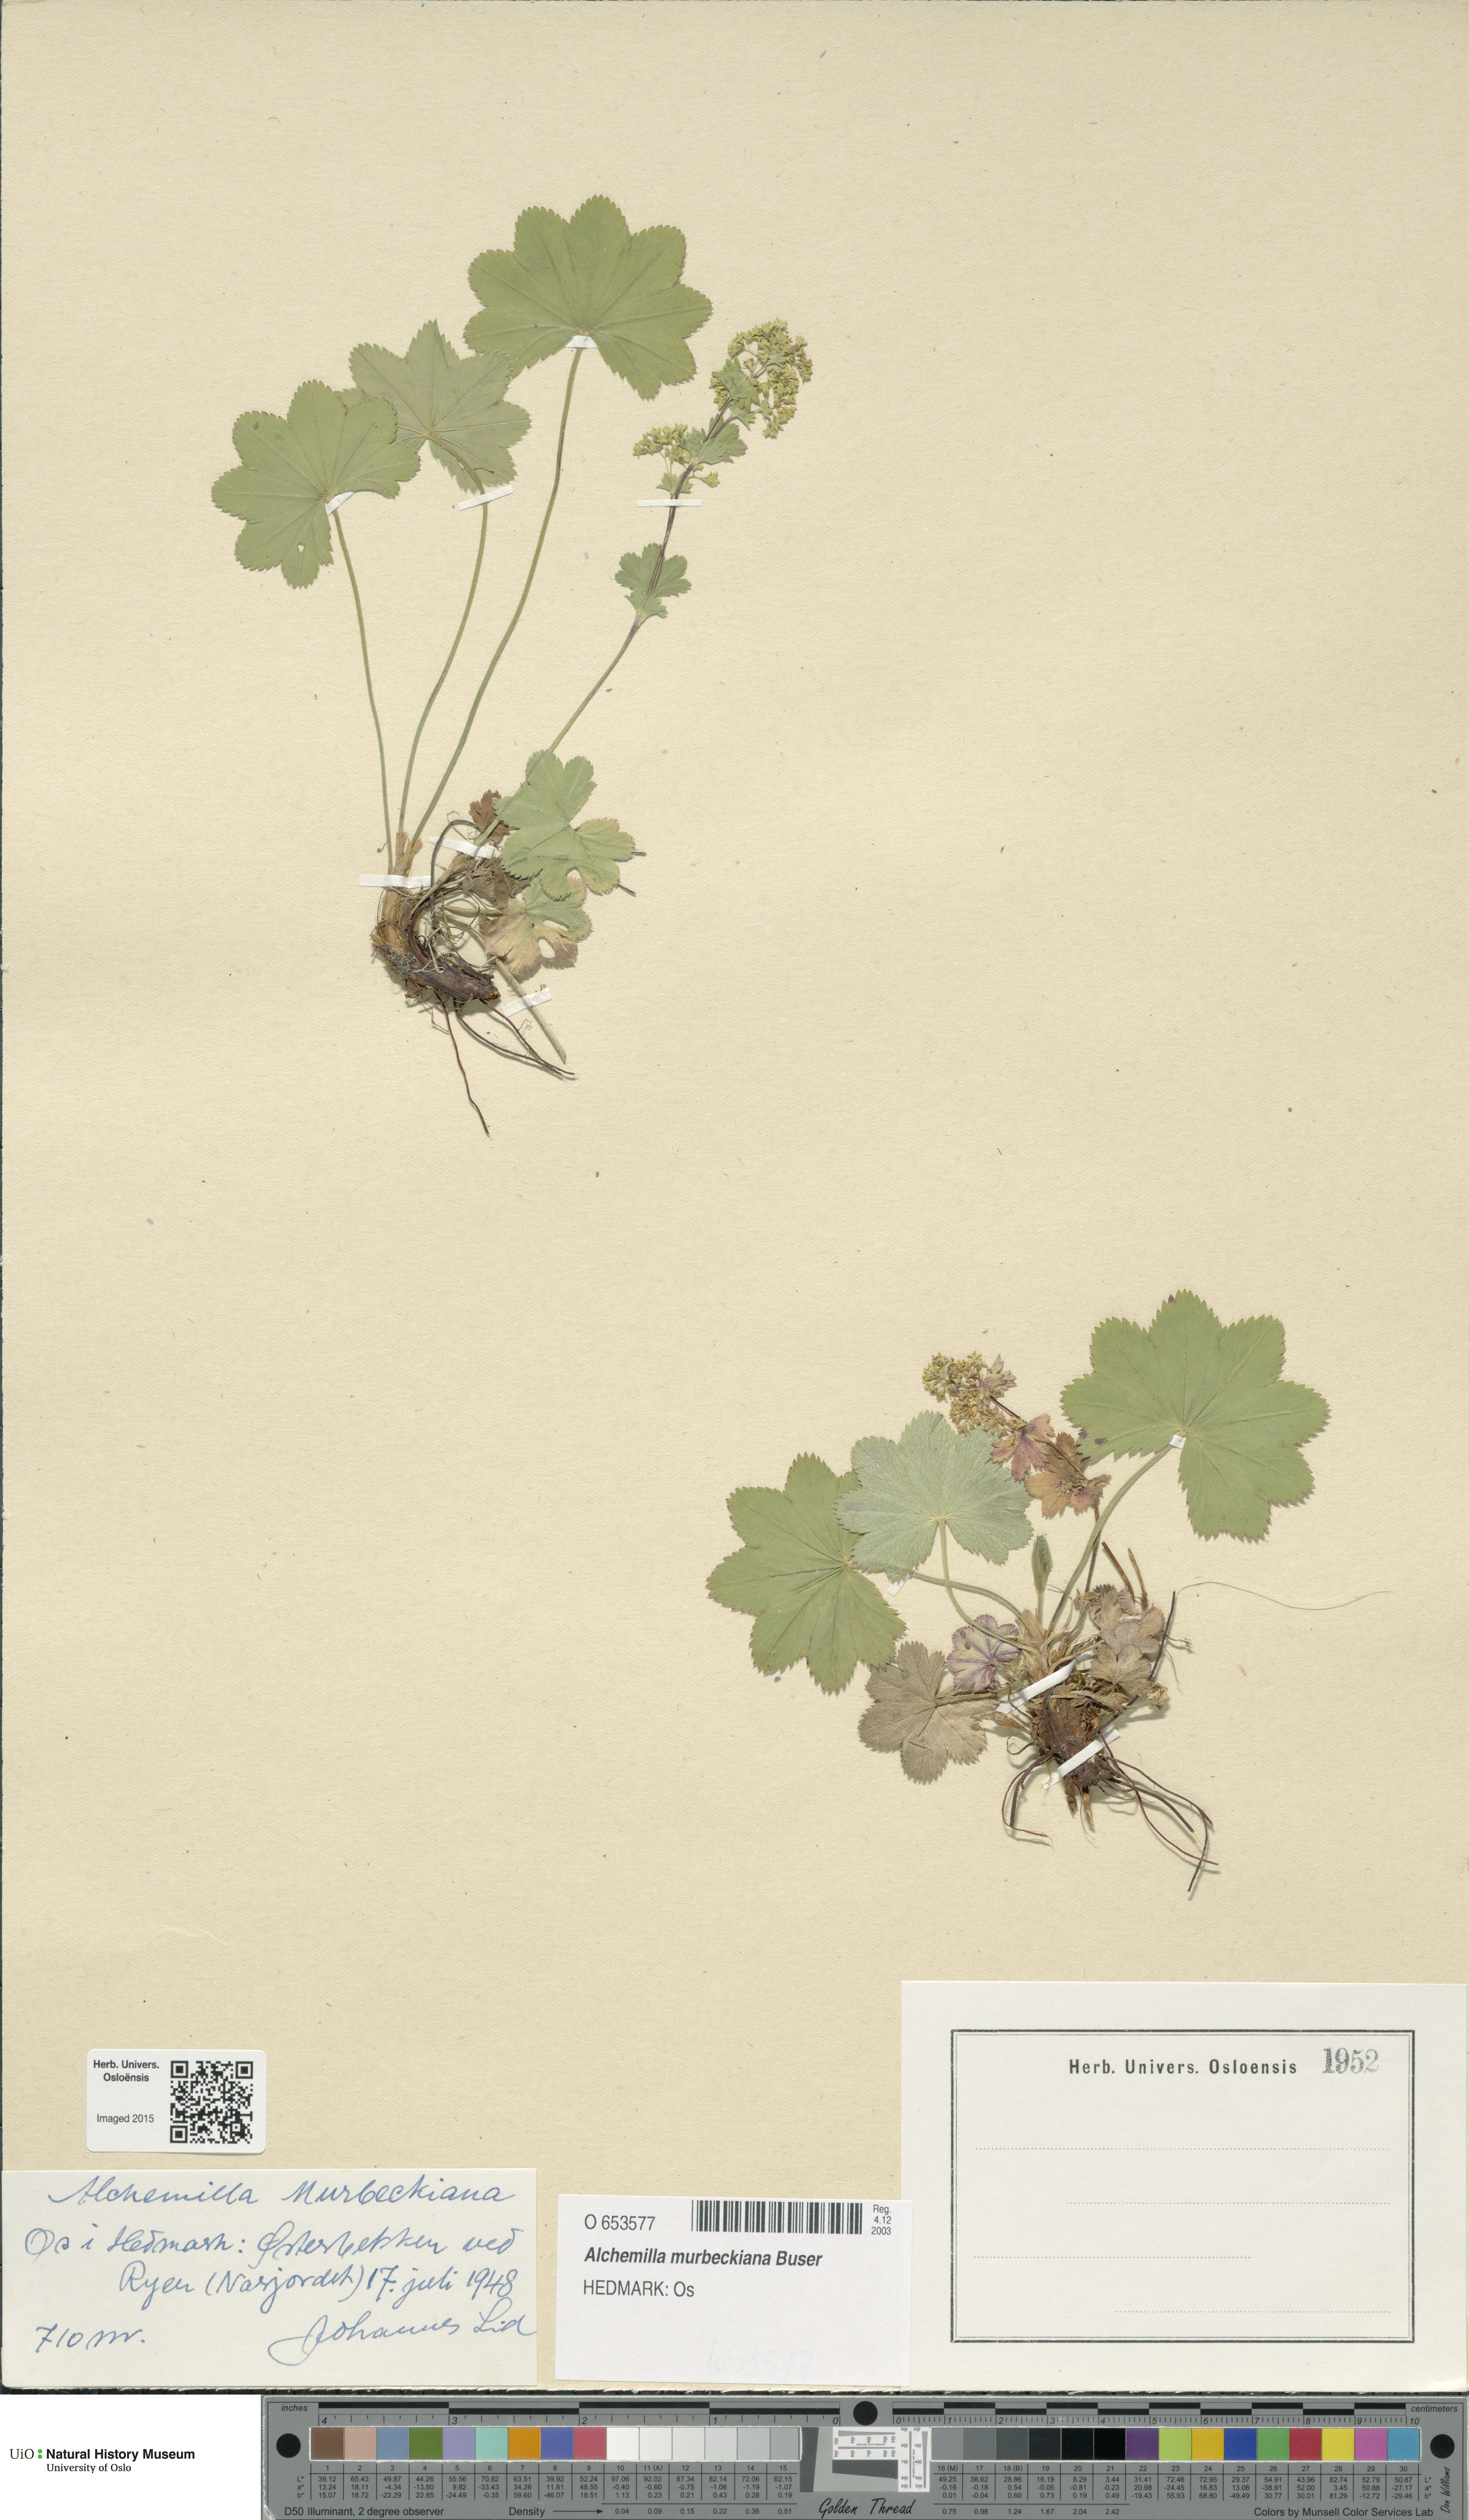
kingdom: Plantae
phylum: Tracheophyta
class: Magnoliopsida
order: Rosales
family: Rosaceae
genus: Alchemilla
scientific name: Alchemilla murbeckiana
